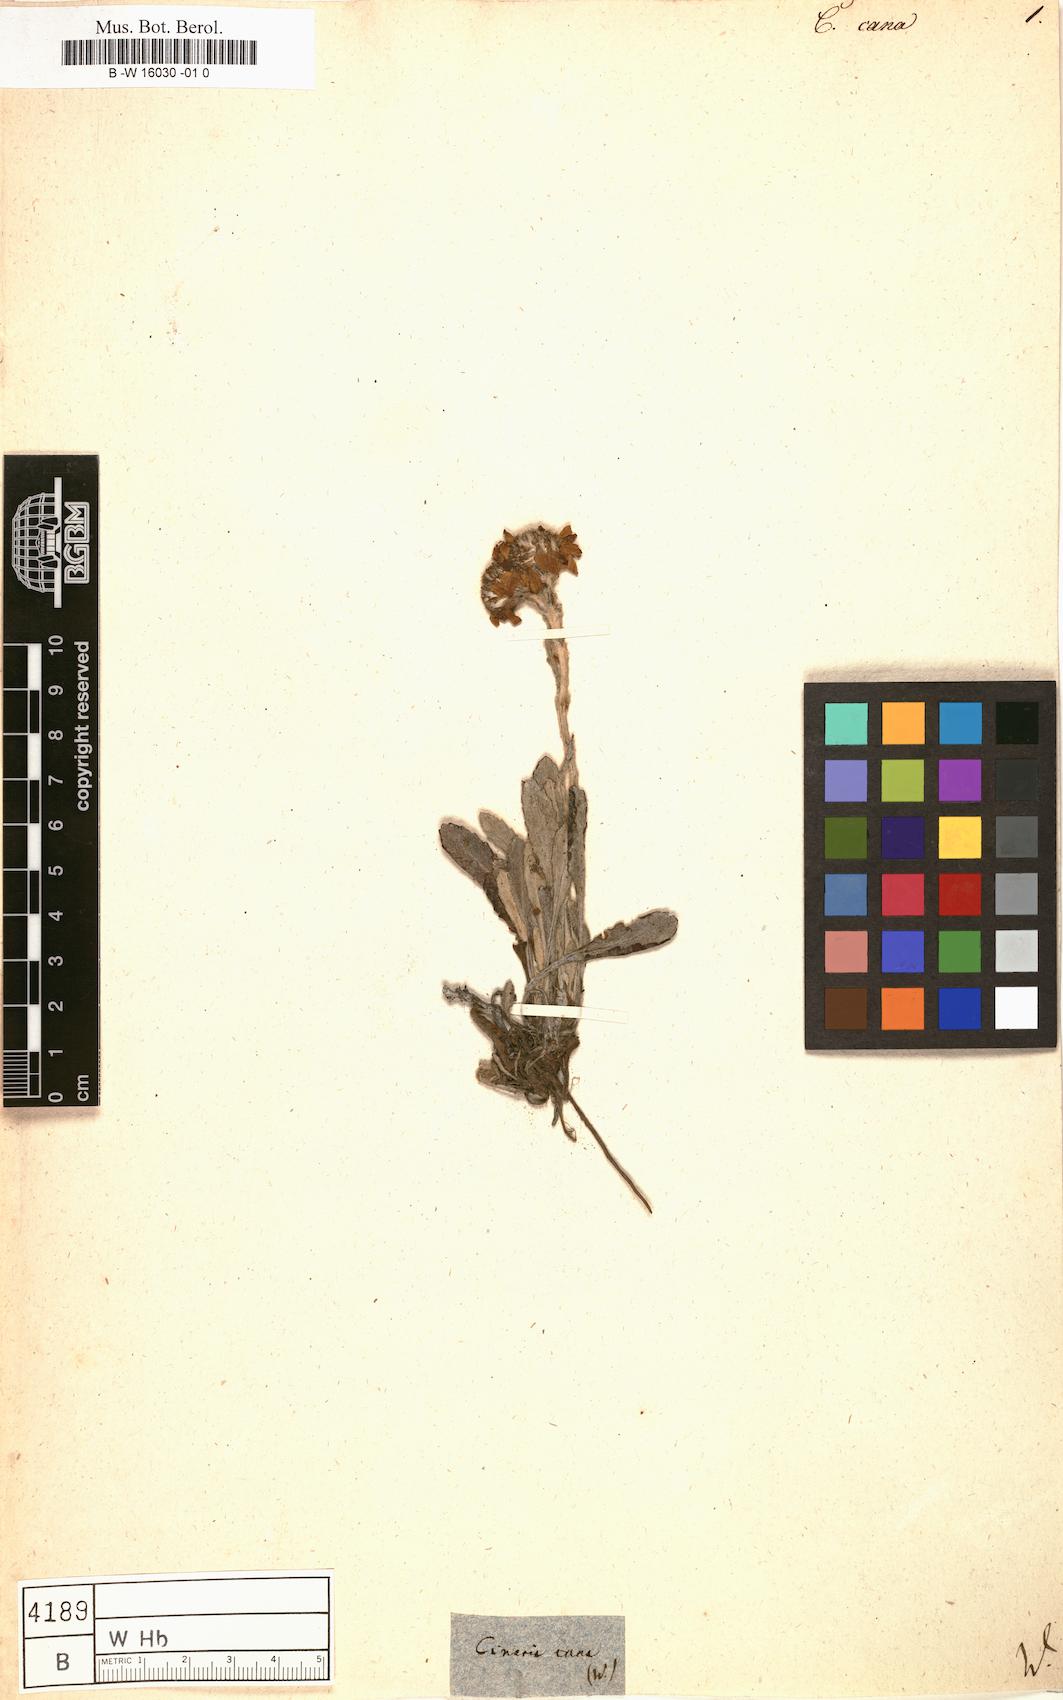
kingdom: Plantae
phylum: Tracheophyta
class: Magnoliopsida
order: Asterales
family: Asteraceae
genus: Cineraria
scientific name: Cineraria
